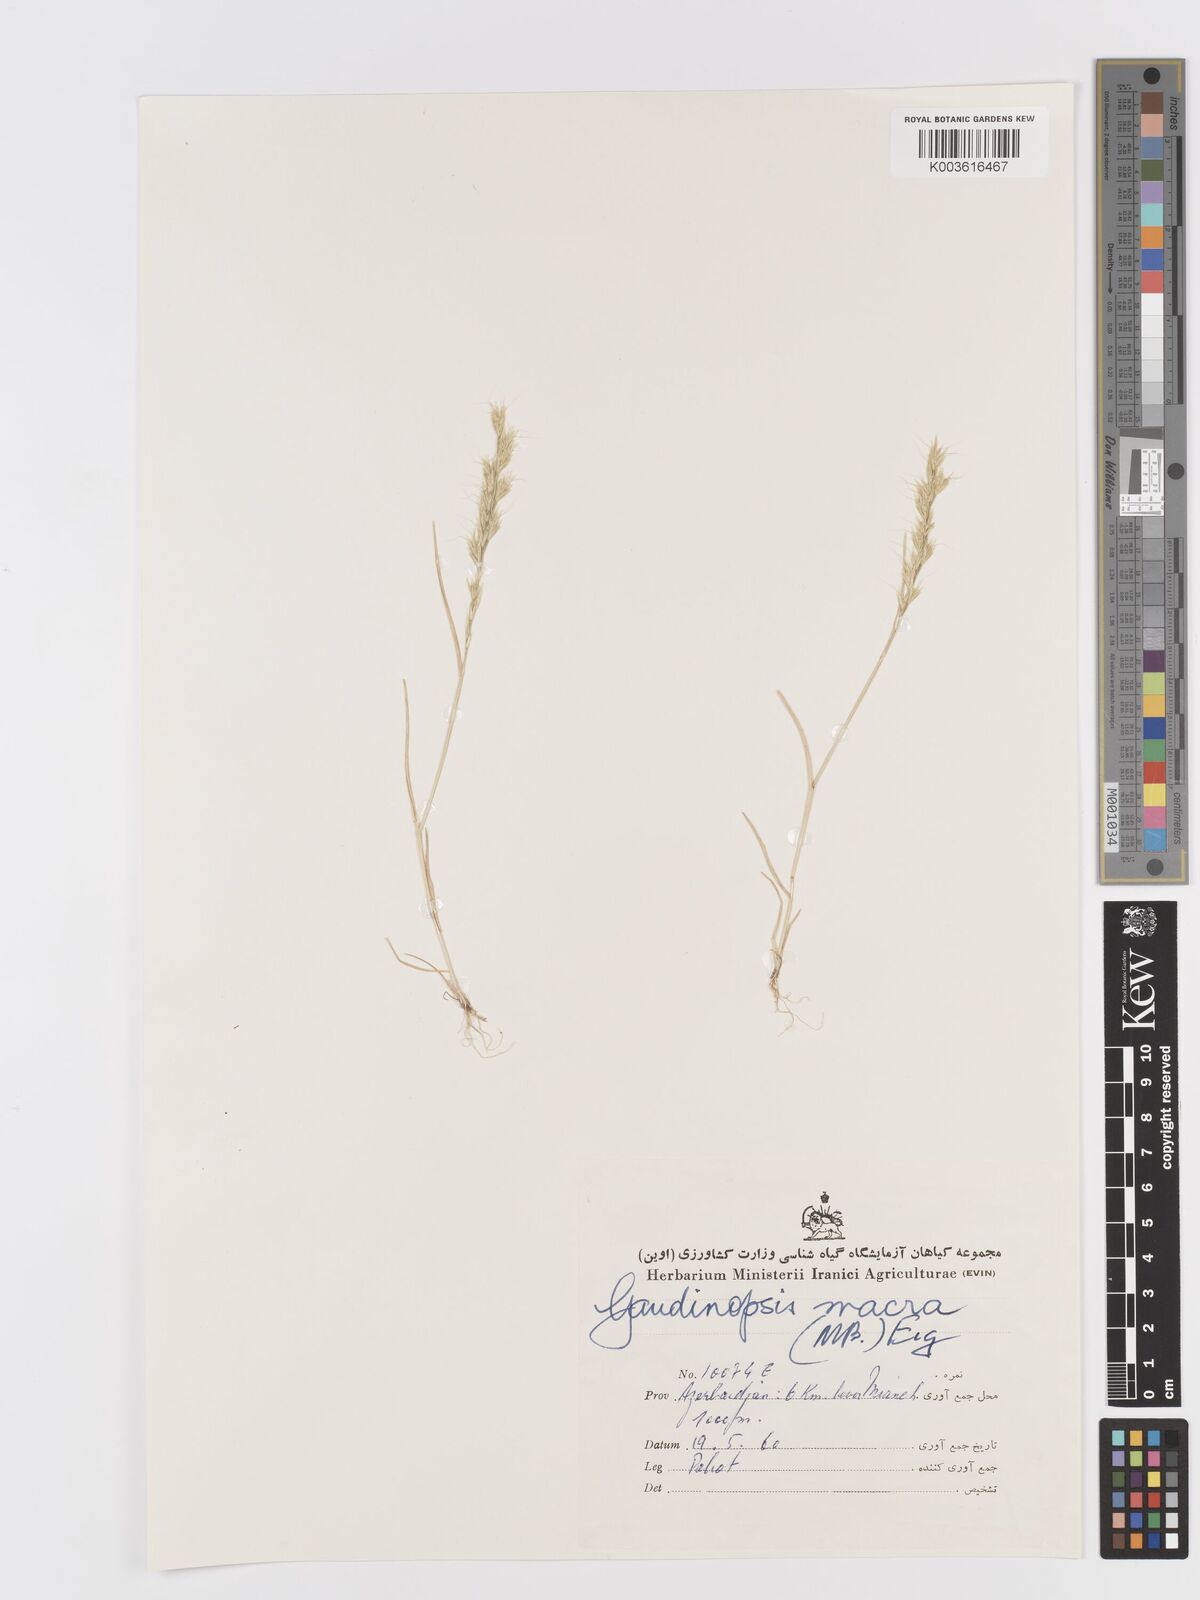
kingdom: Plantae
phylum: Tracheophyta
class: Liliopsida
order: Poales
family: Poaceae
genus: Ventenata
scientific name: Ventenata macra
